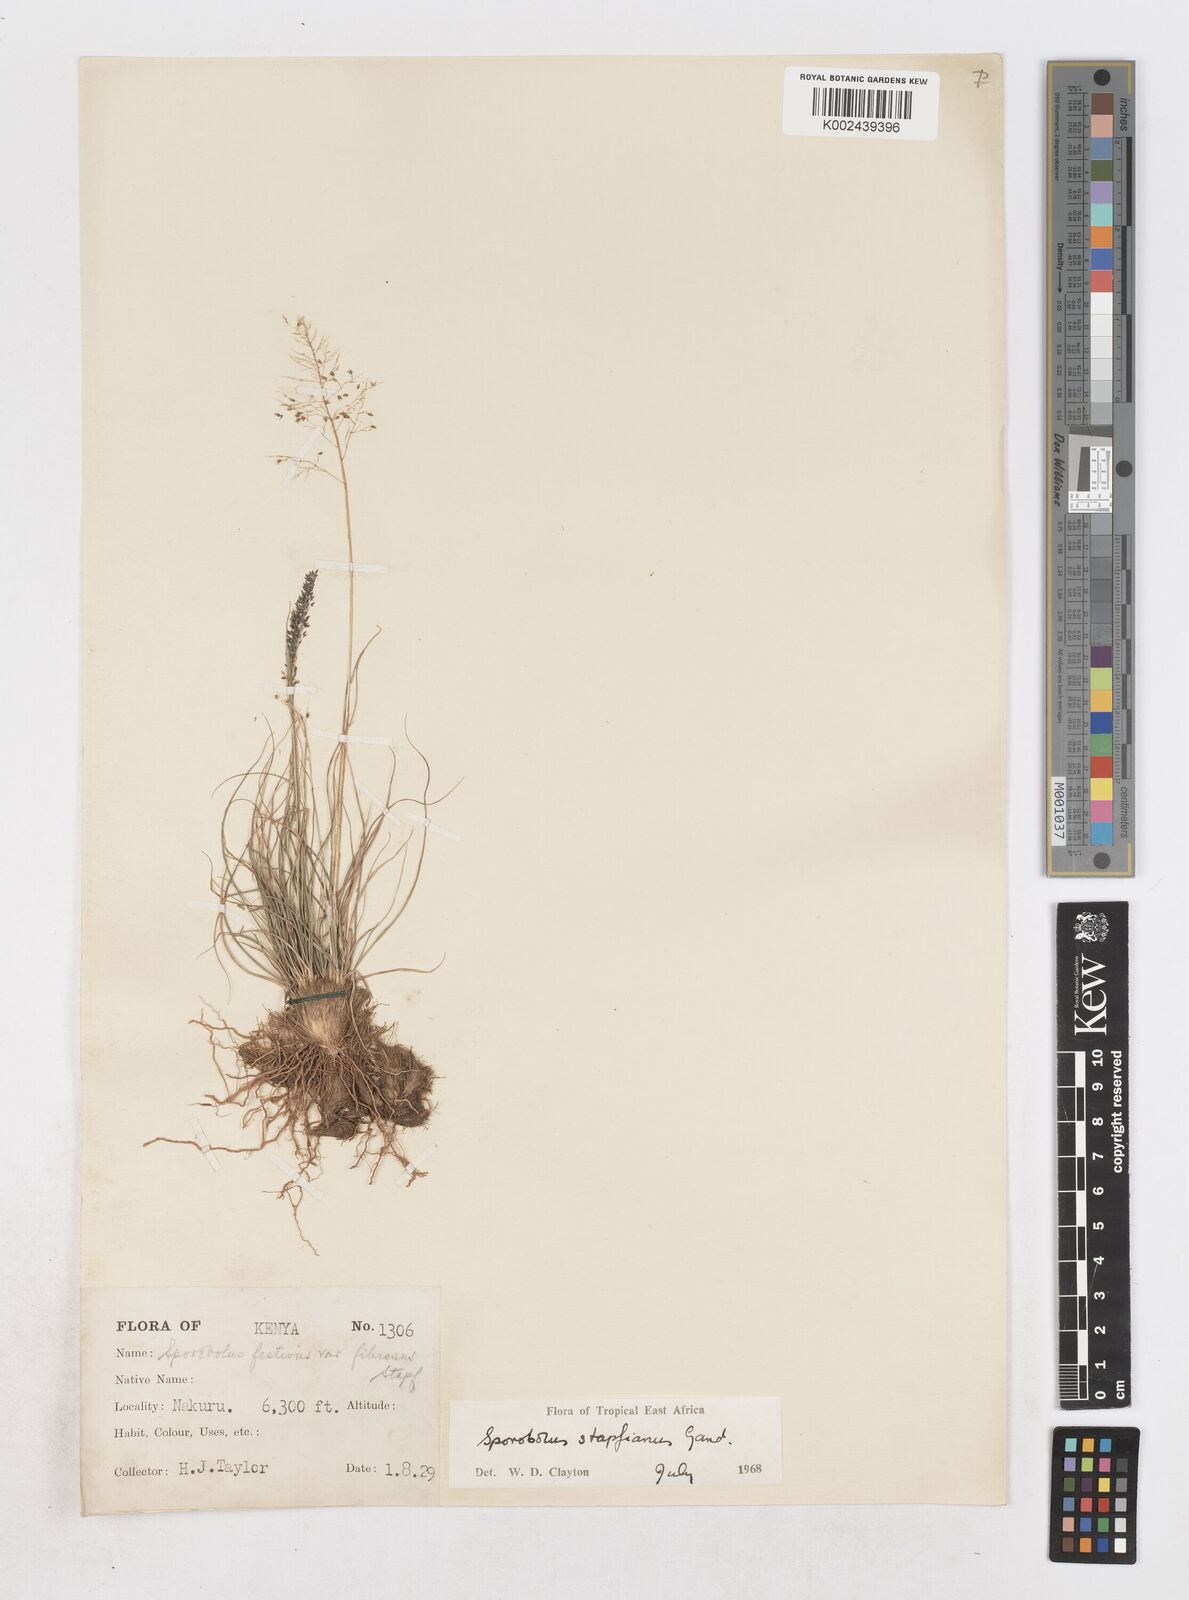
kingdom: Plantae
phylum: Tracheophyta
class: Liliopsida
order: Poales
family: Poaceae
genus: Sporobolus
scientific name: Sporobolus stapfianus
